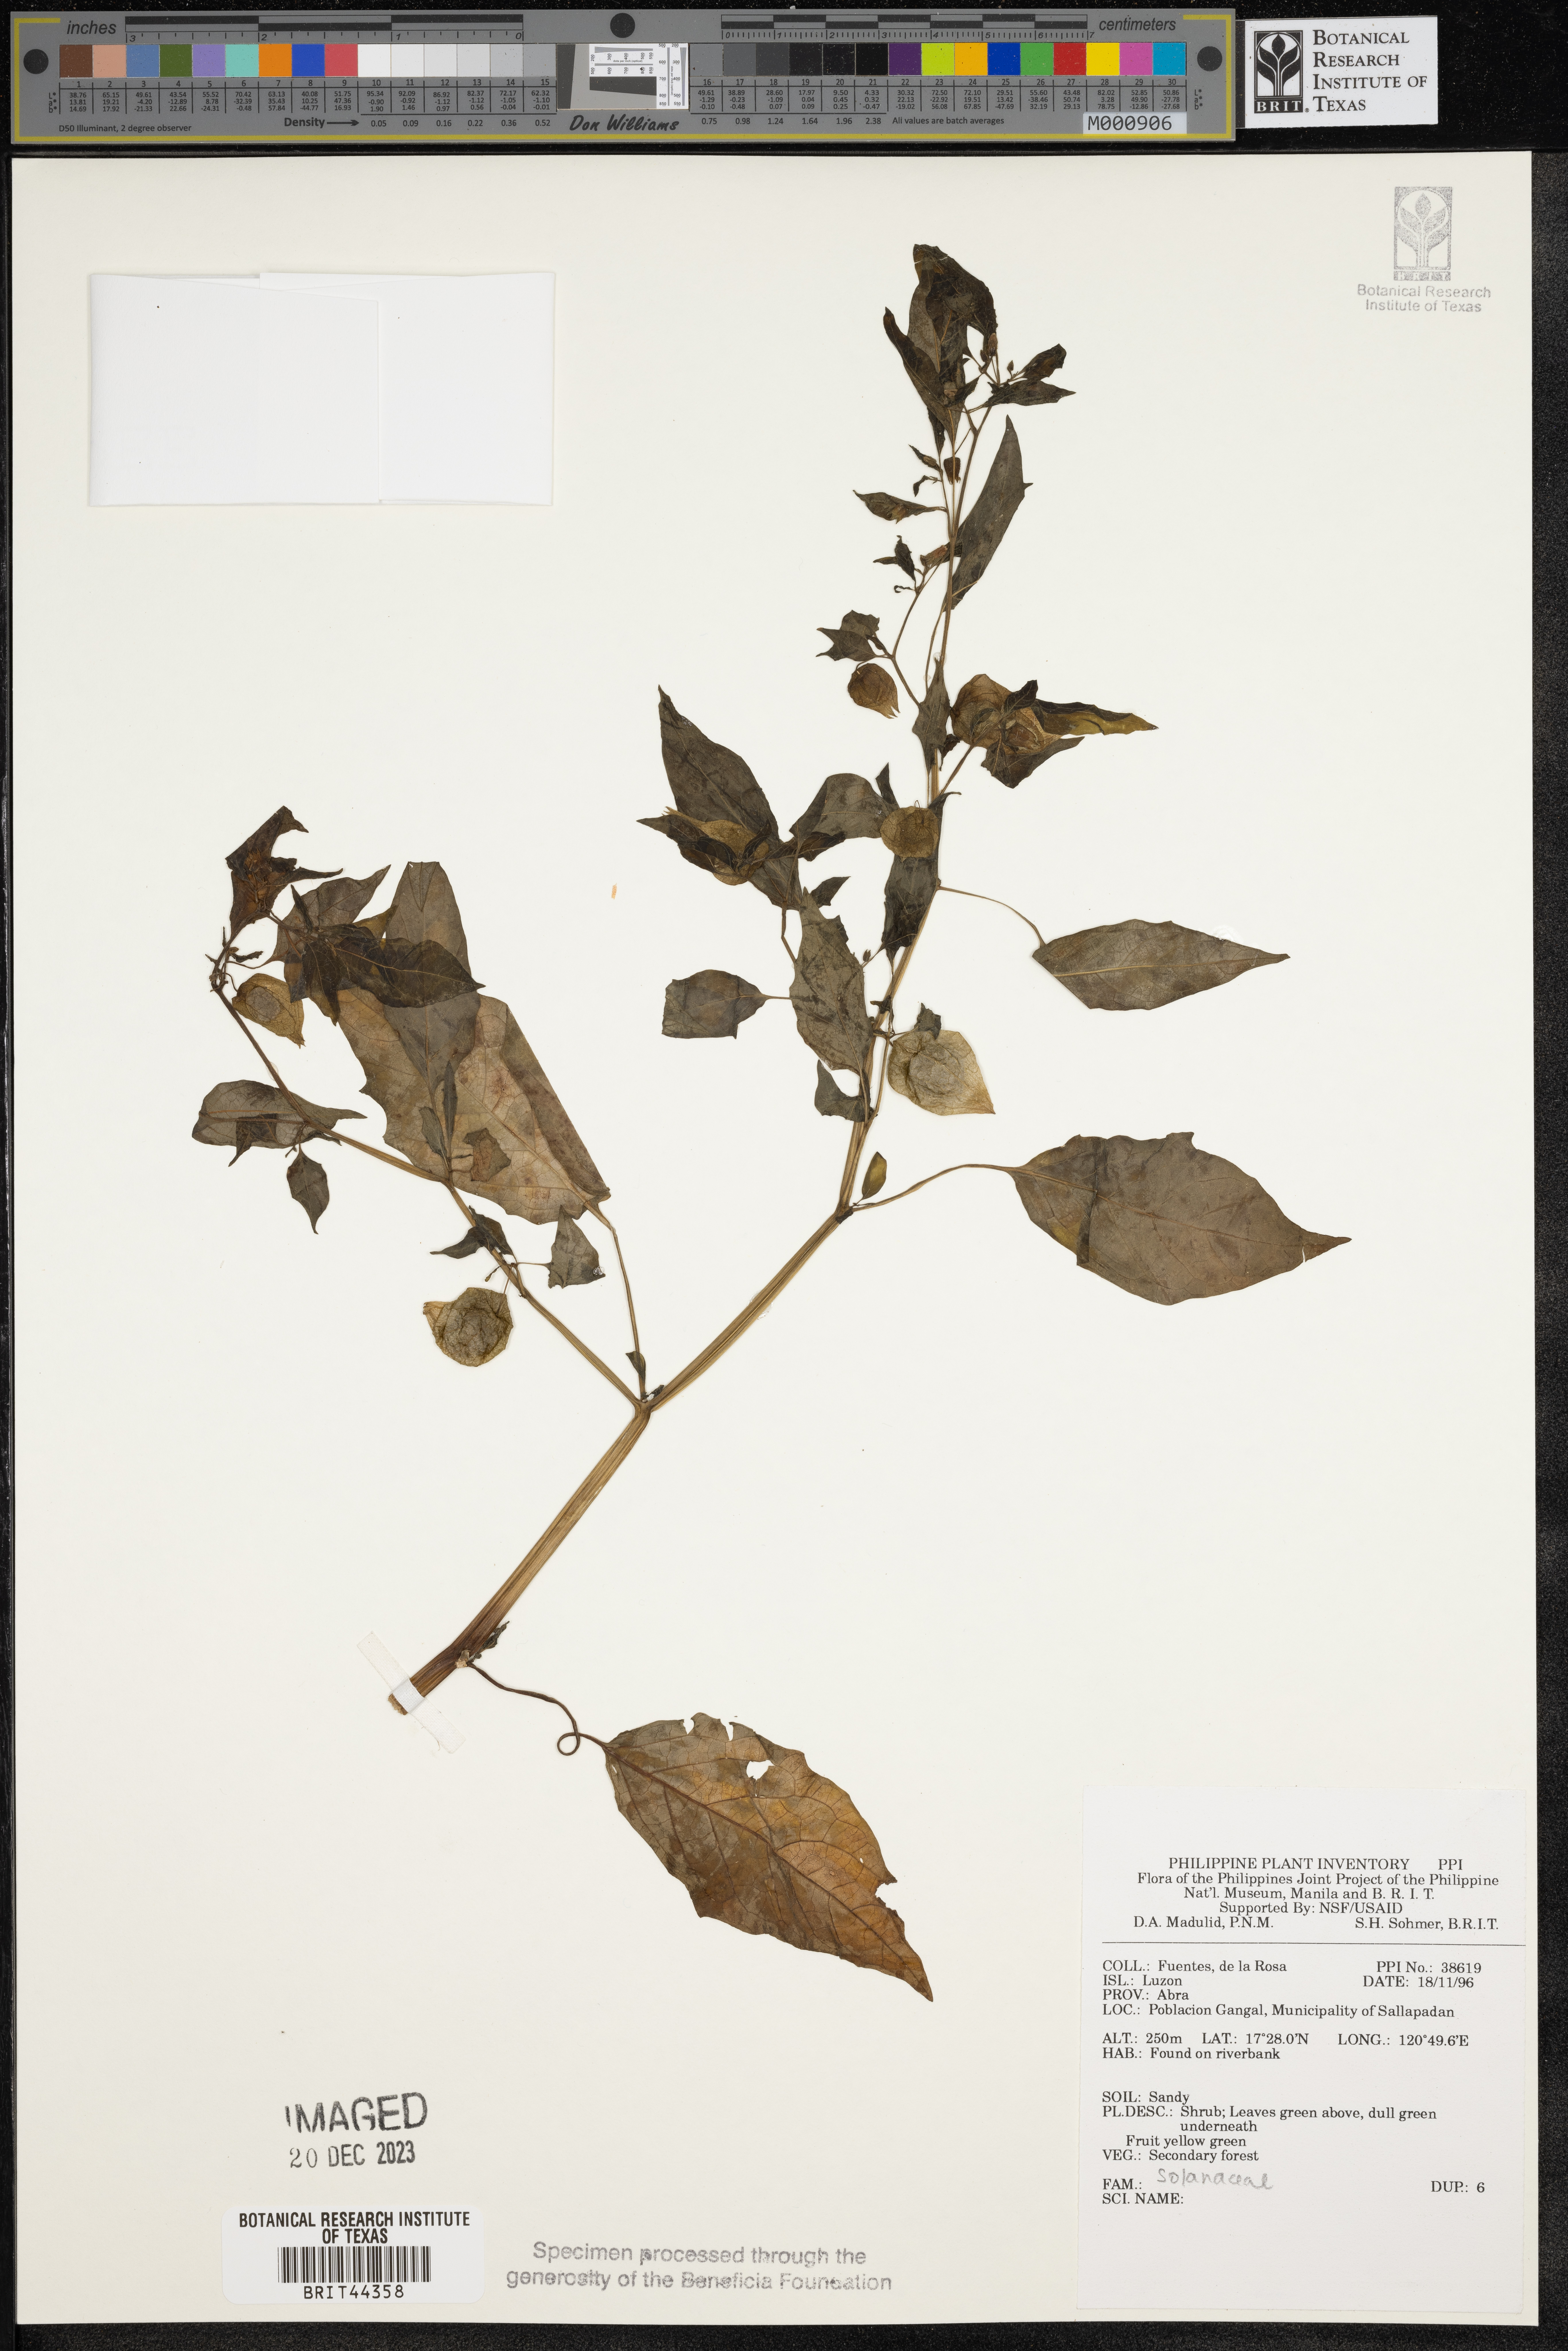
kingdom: Plantae
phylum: Tracheophyta
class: Magnoliopsida
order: Solanales
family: Solanaceae
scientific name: Solanaceae
